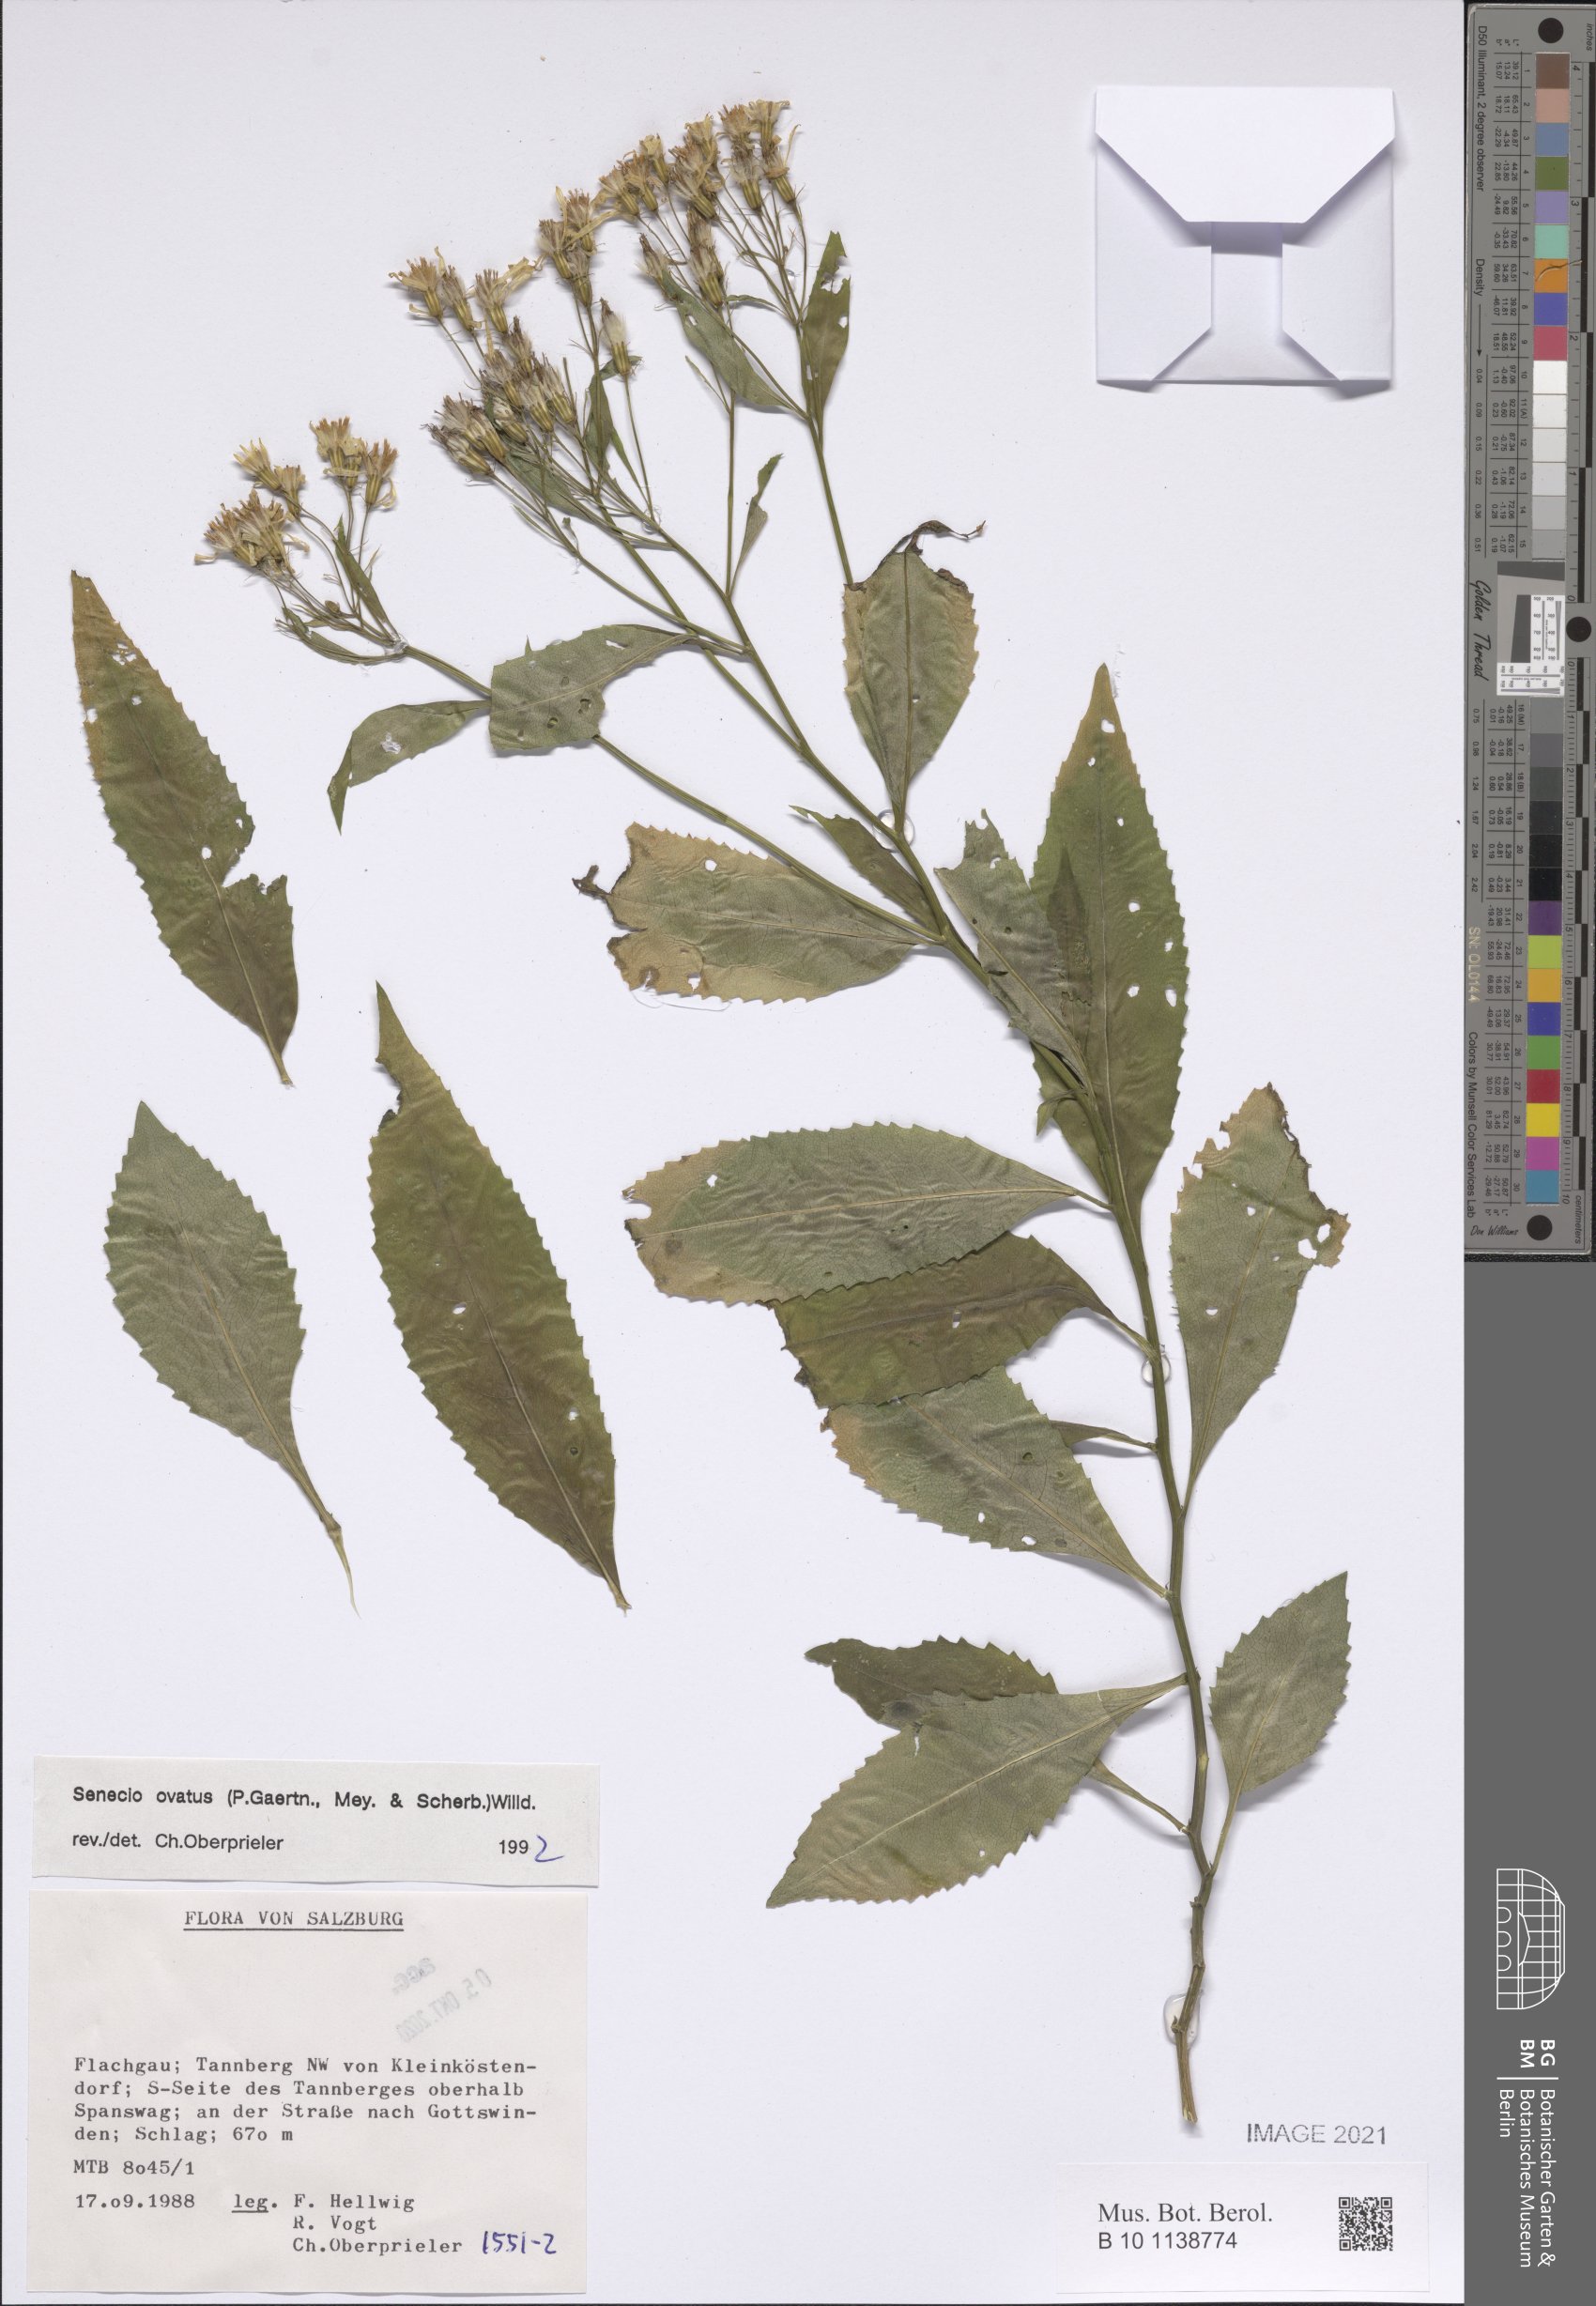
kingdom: Plantae
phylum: Tracheophyta
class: Magnoliopsida
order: Asterales
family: Asteraceae
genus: Senecio
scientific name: Senecio ovatus
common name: Wood ragwort
